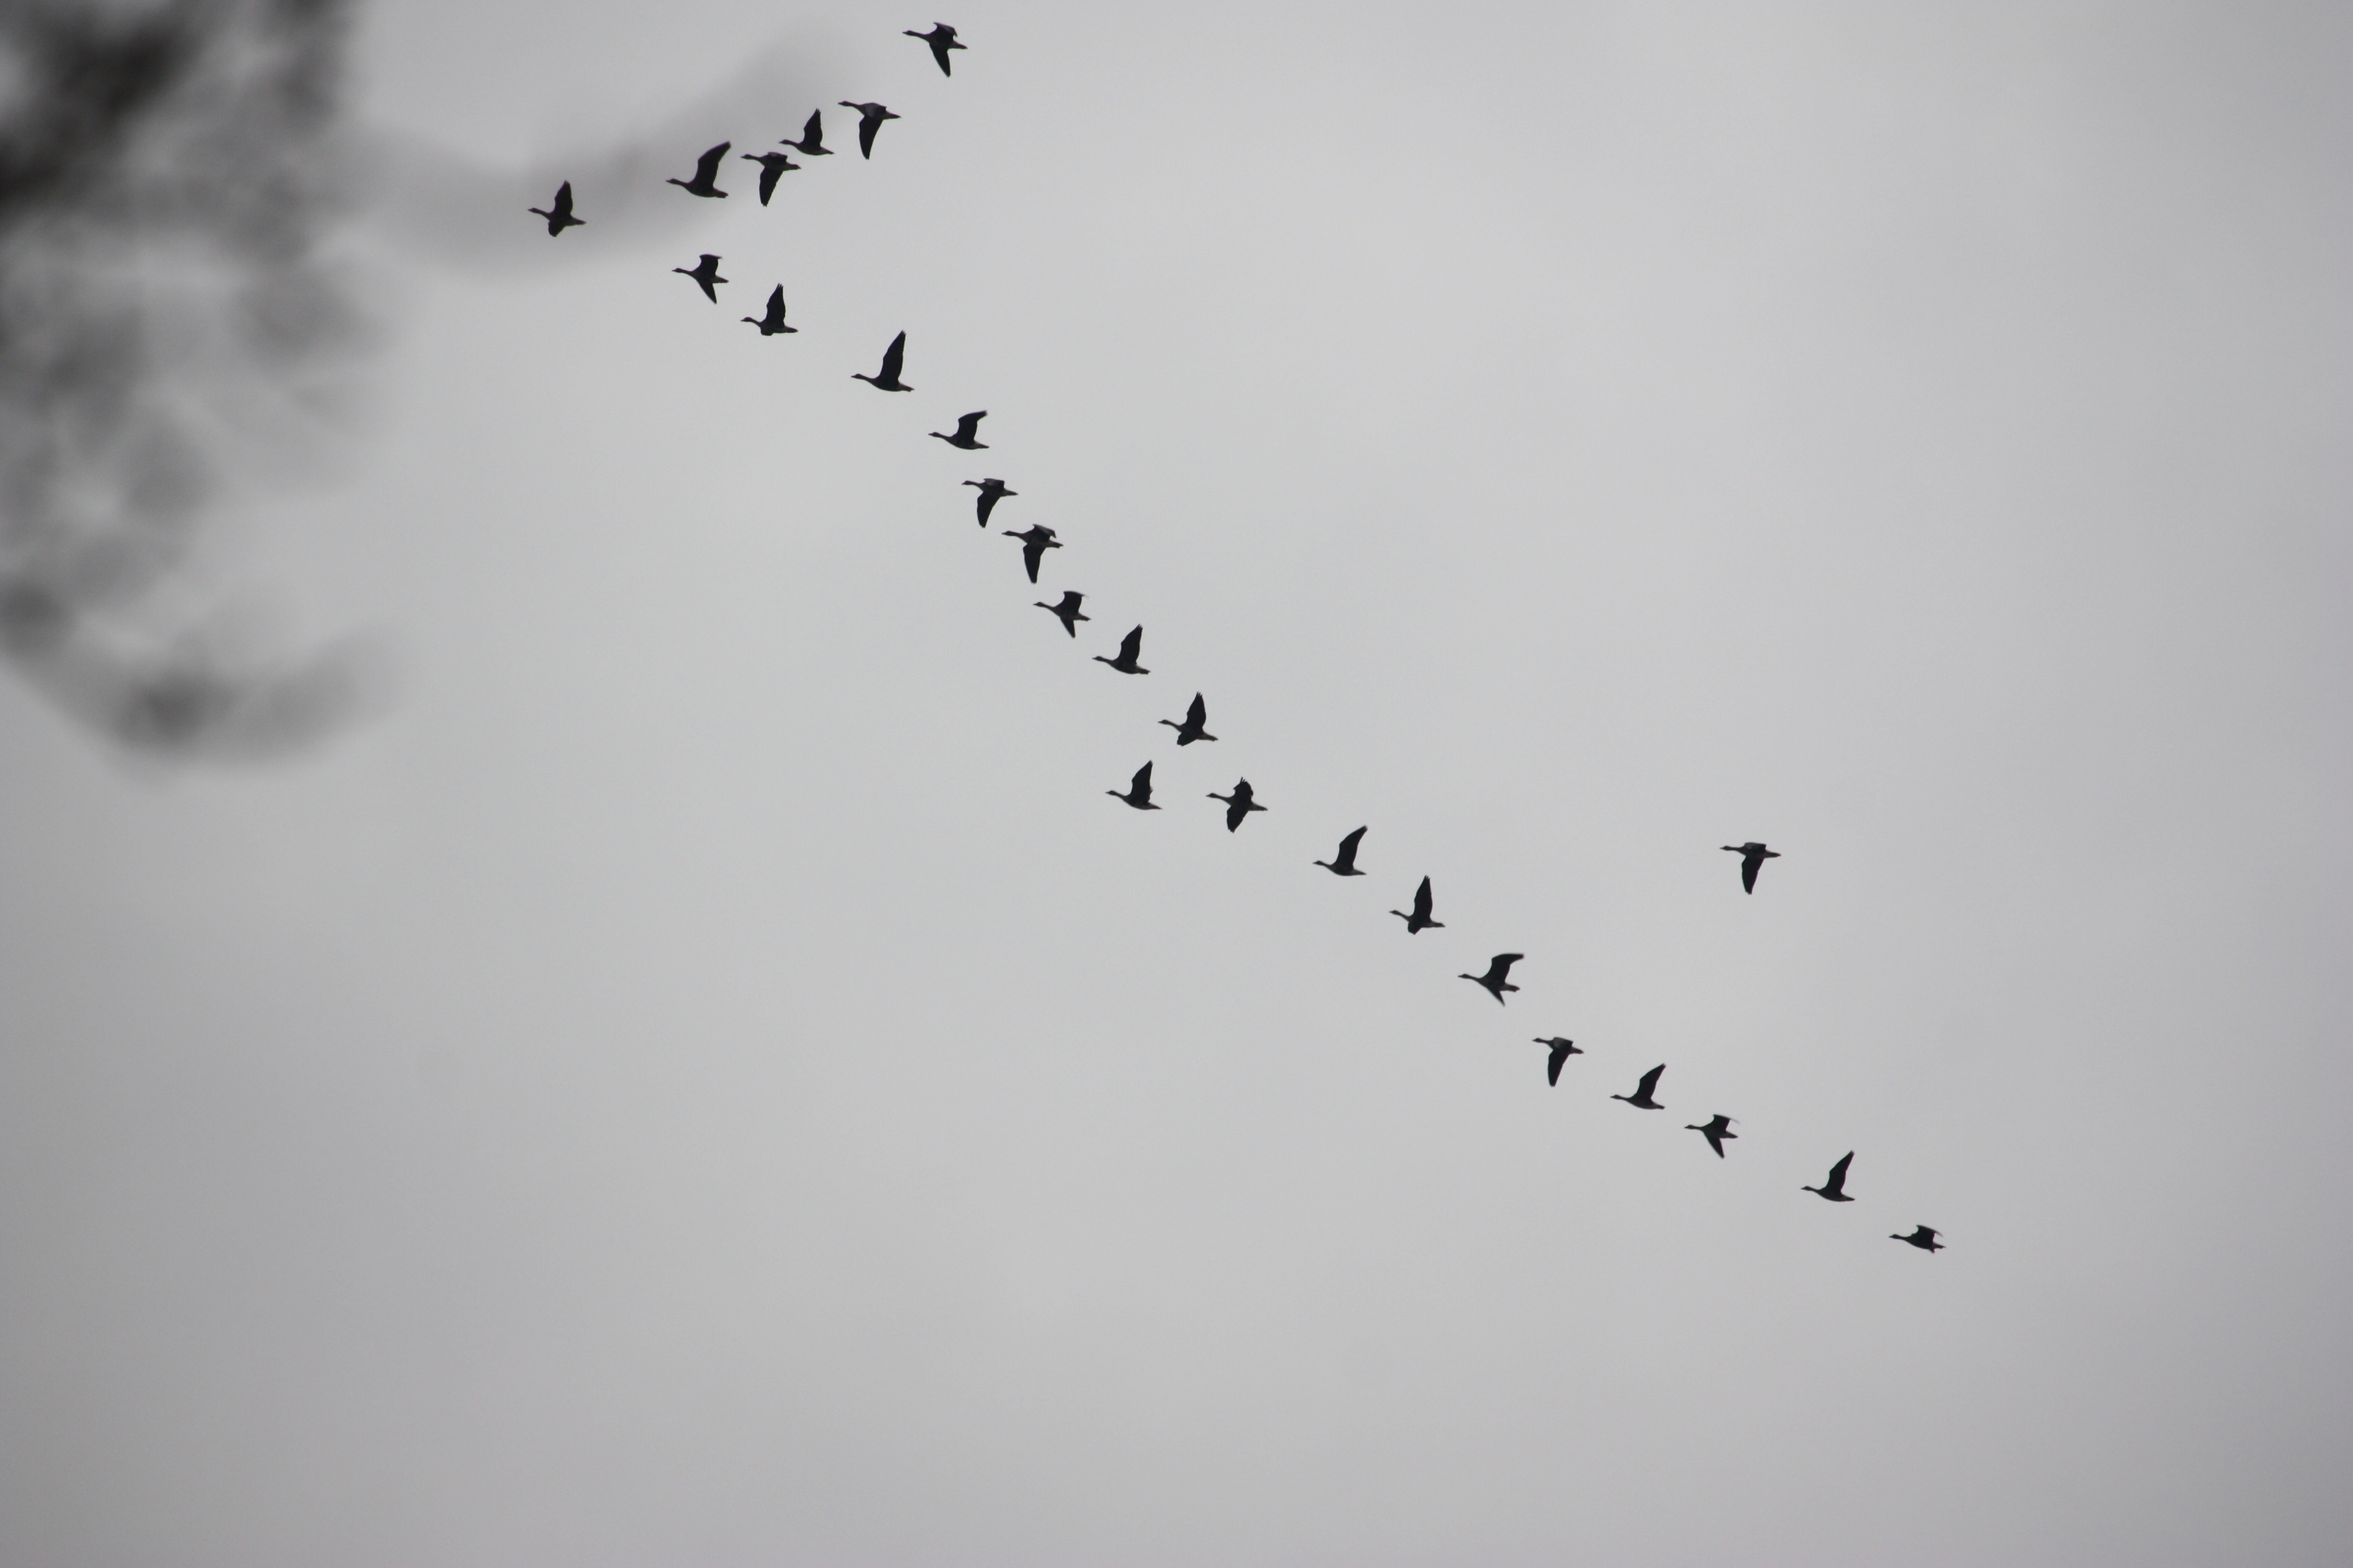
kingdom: Animalia
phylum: Chordata
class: Aves
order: Anseriformes
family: Anatidae
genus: Anser
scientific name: Anser anser
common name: Grågås
